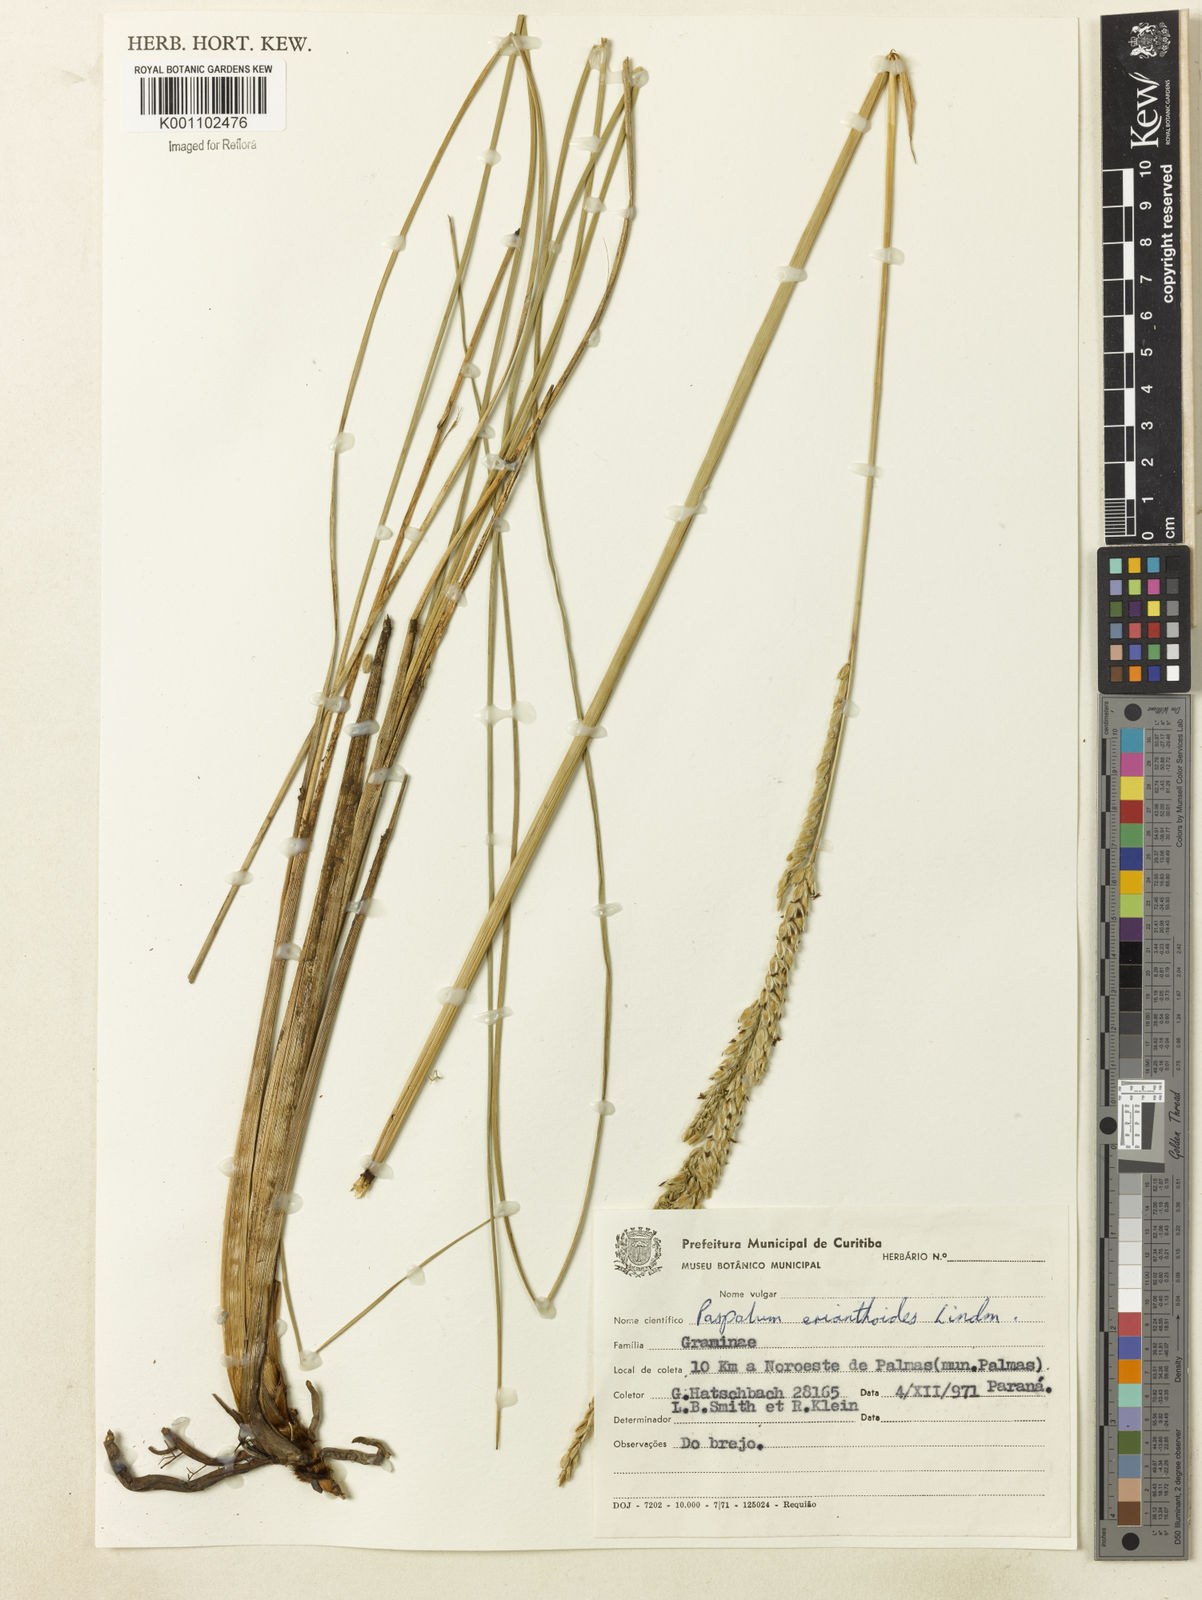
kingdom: Plantae
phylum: Tracheophyta
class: Liliopsida
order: Poales
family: Poaceae
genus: Paspalum
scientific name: Paspalum erianthoides
